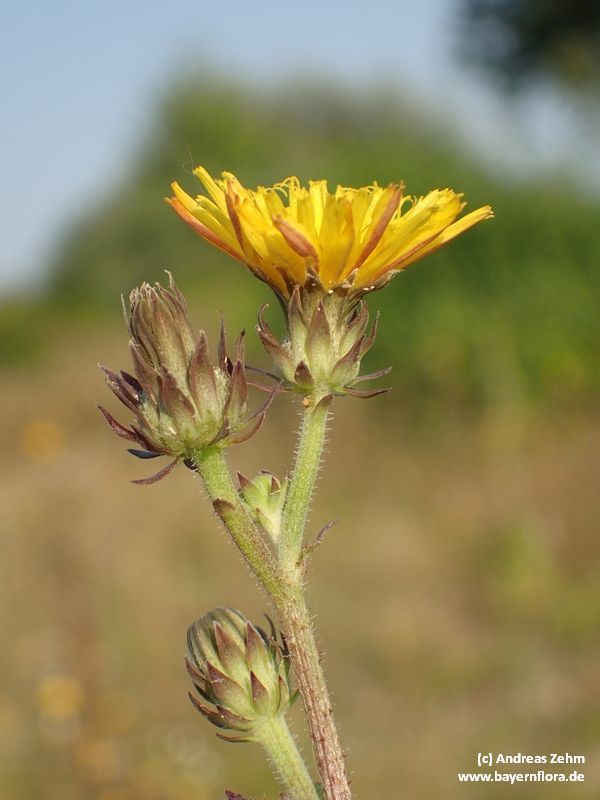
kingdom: Plantae
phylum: Tracheophyta
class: Magnoliopsida
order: Asterales
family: Asteraceae
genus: Picris
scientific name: Picris hieracioides
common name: Hawkweed oxtongue
